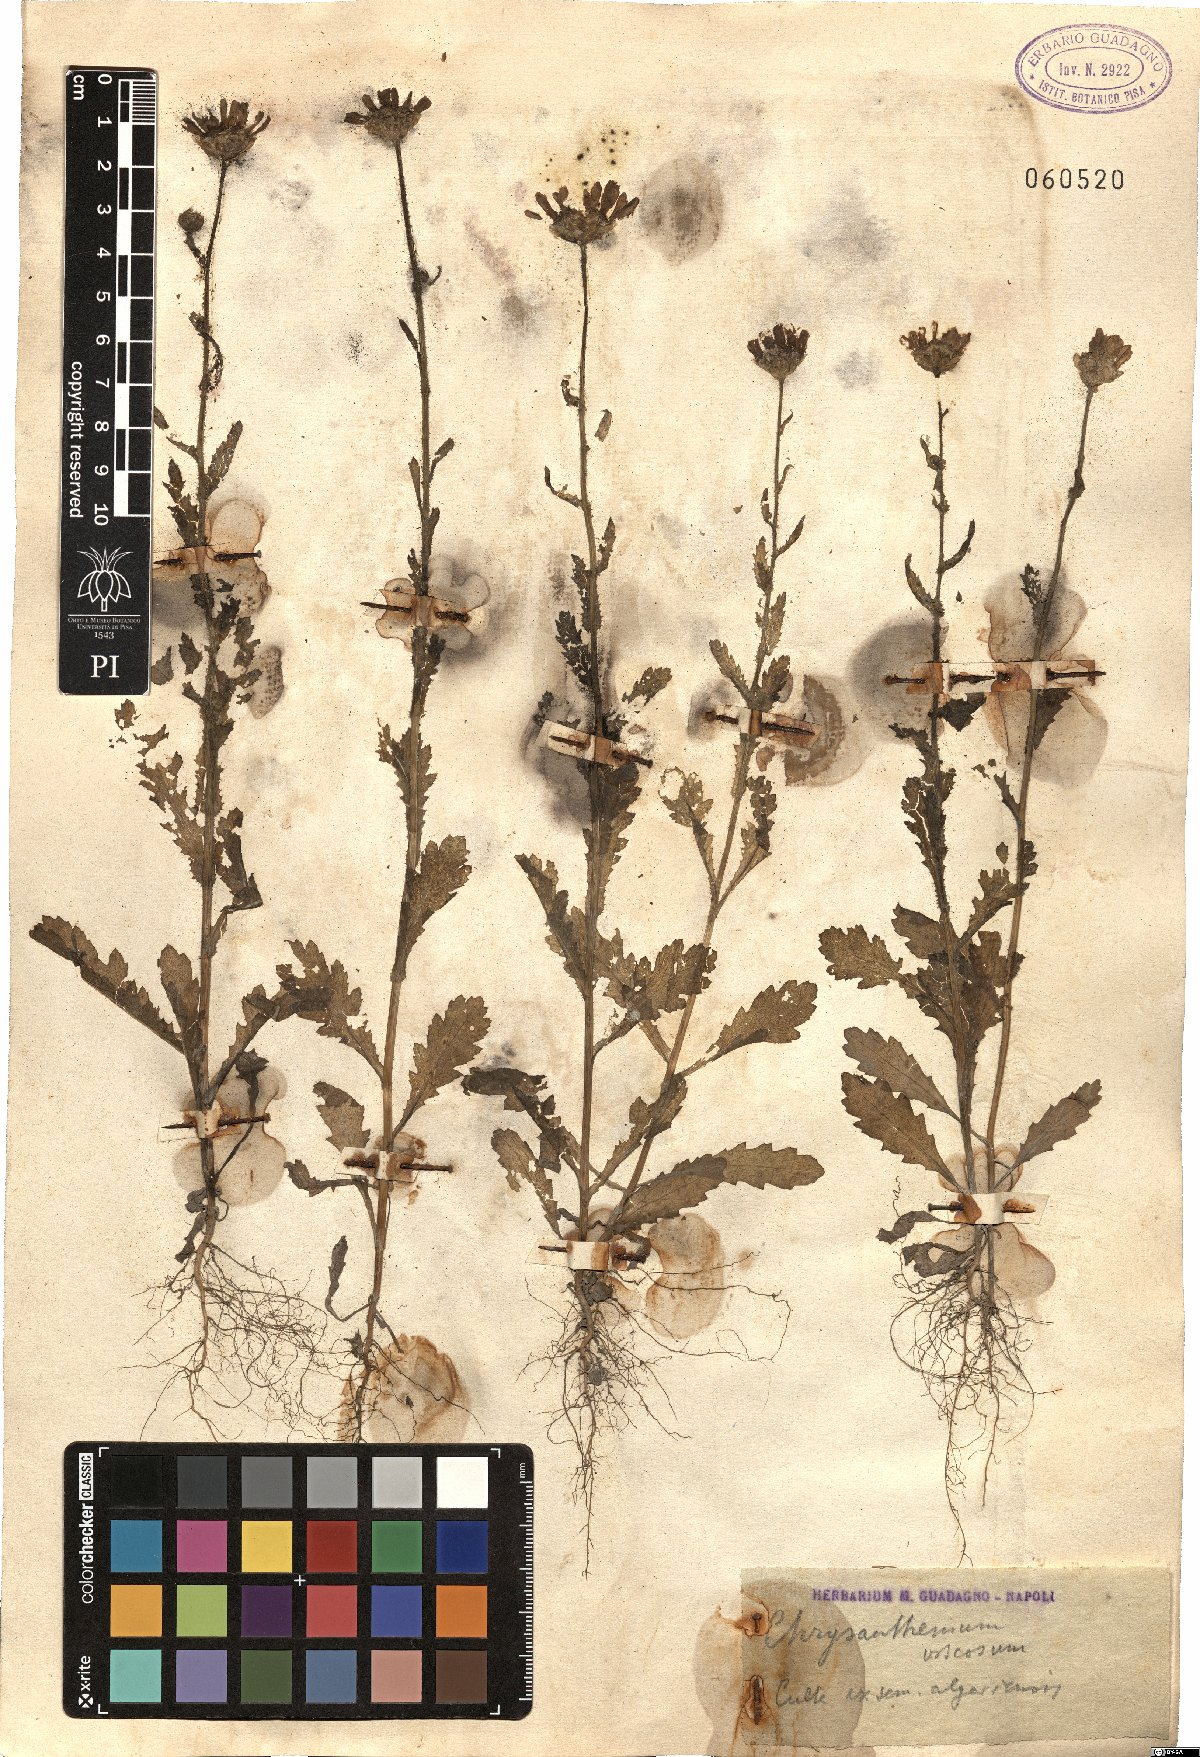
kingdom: Plantae
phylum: Tracheophyta
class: Magnoliopsida
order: Asterales
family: Asteraceae
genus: Heteranthemis
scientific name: Heteranthemis viscidehirta
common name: Sticky oxeye
